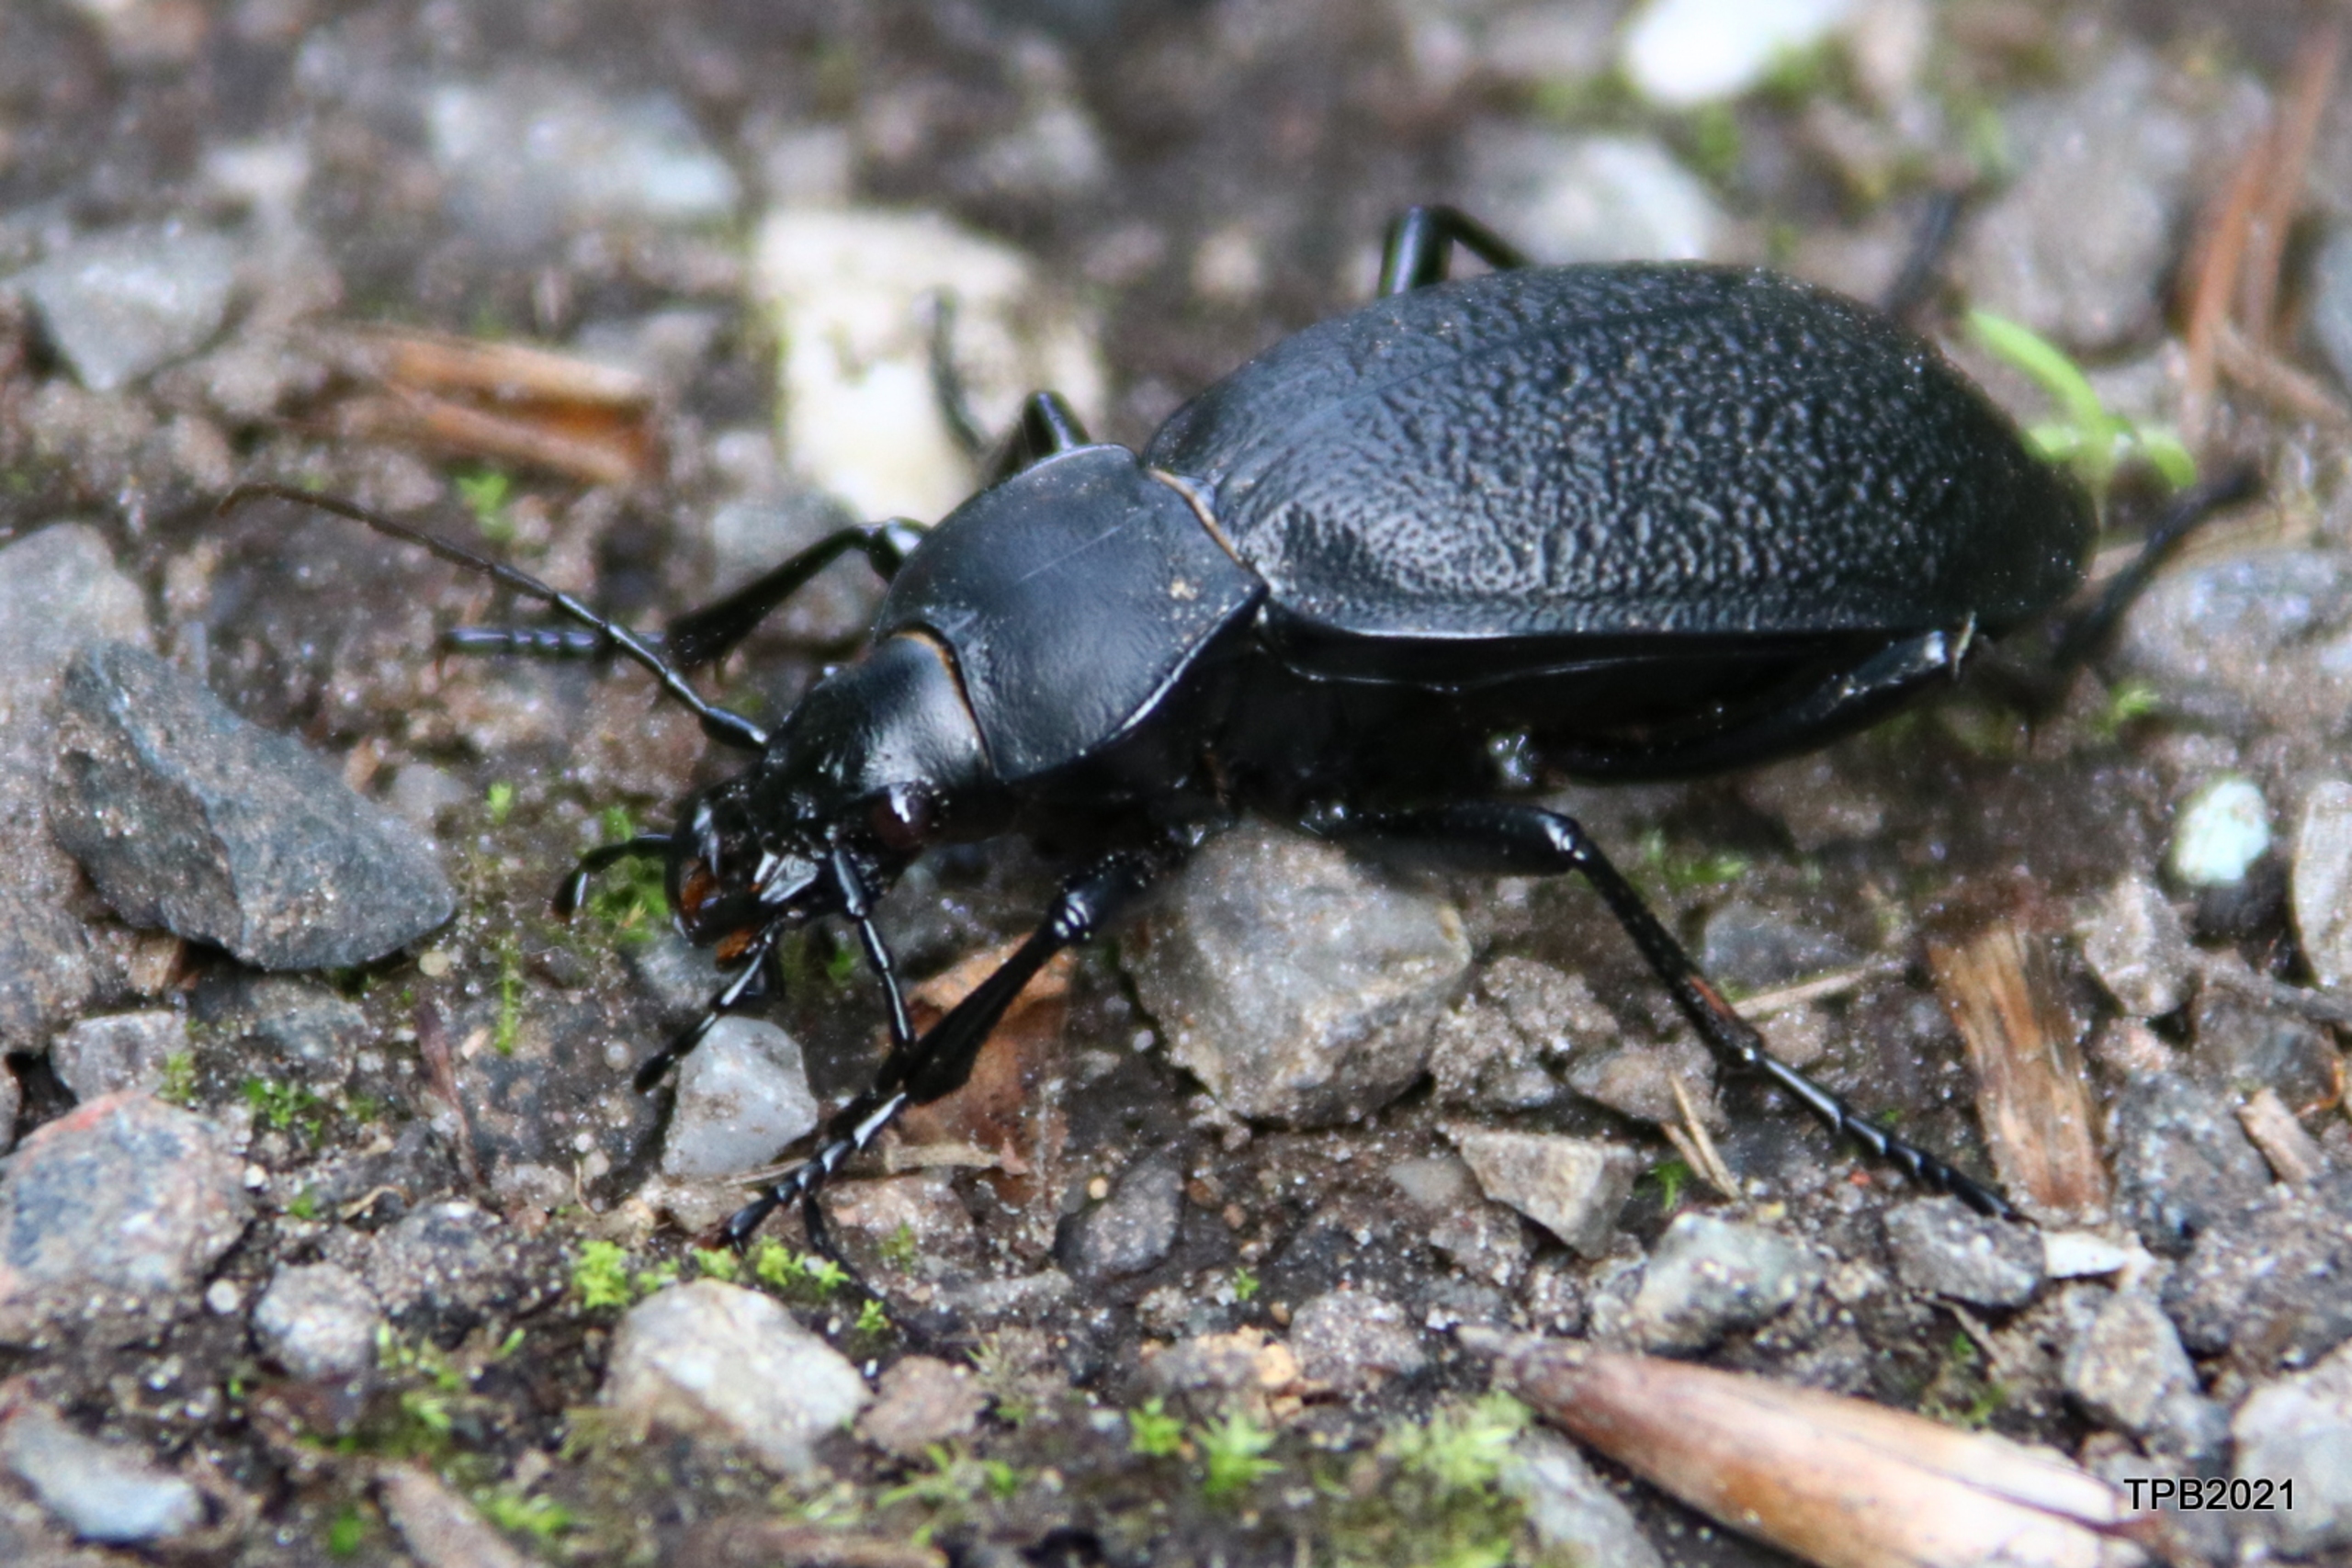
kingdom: Animalia
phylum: Arthropoda
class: Insecta
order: Coleoptera
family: Carabidae
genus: Carabus
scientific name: Carabus coriaceus
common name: Læderløber
